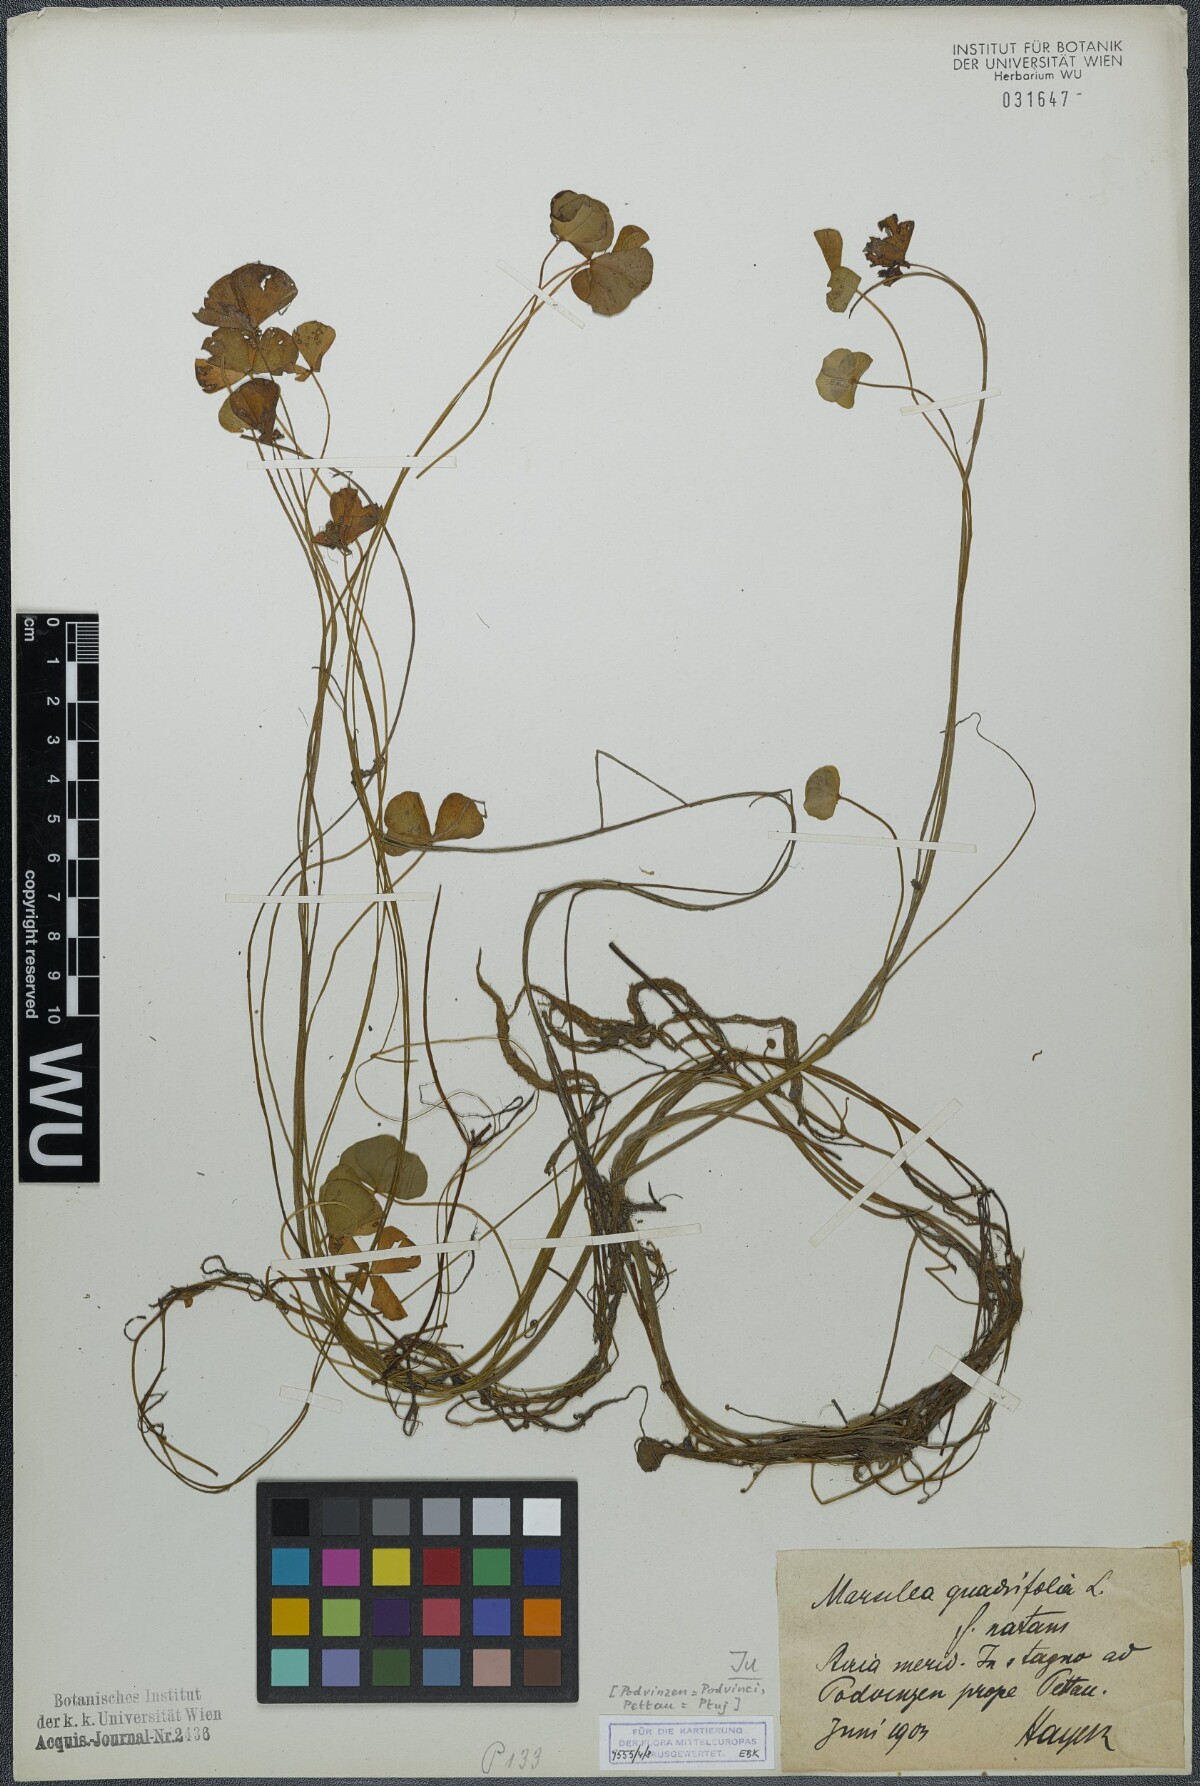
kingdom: Plantae
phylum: Tracheophyta
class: Polypodiopsida
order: Salviniales
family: Marsileaceae
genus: Marsilea
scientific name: Marsilea quadrifolia
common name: Water shamrock
